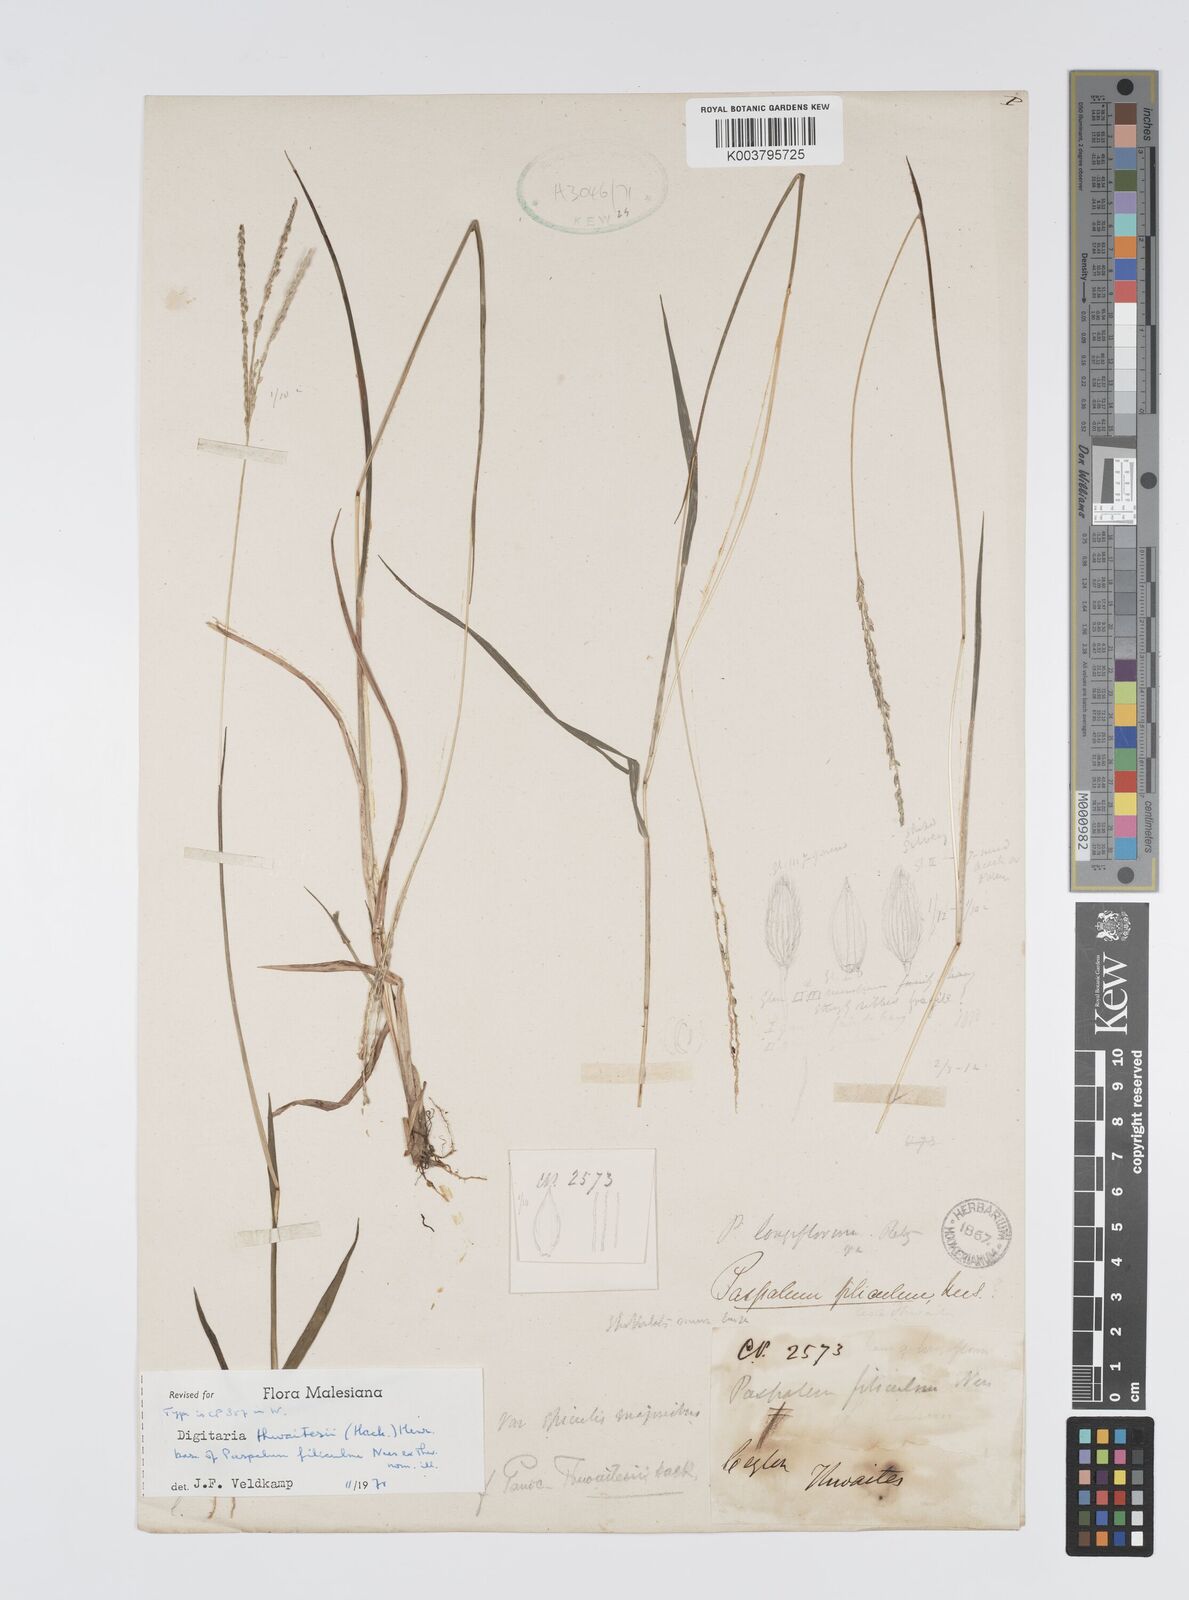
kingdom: Plantae
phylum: Tracheophyta
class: Liliopsida
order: Poales
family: Poaceae
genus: Digitaria
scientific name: Digitaria thwaitesii
